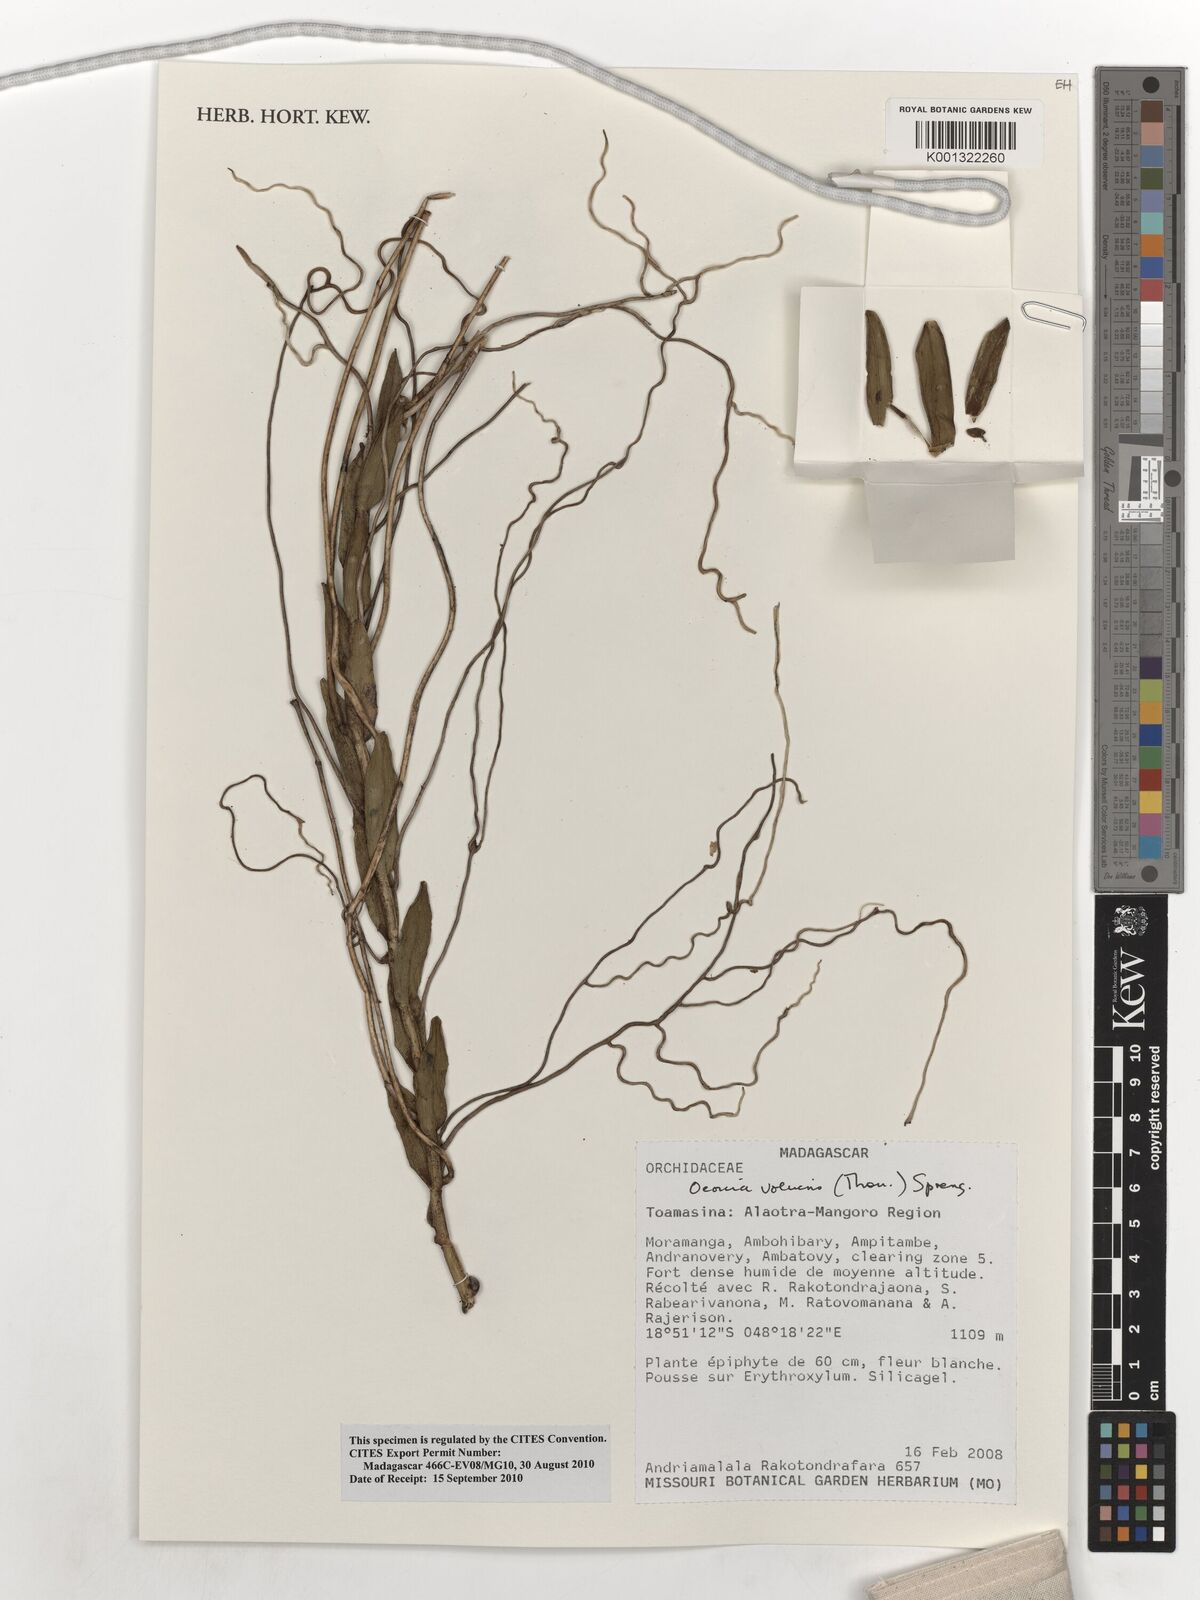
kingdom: Plantae
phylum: Tracheophyta
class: Liliopsida
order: Asparagales
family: Orchidaceae
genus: Oeonia
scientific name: Oeonia volucris
